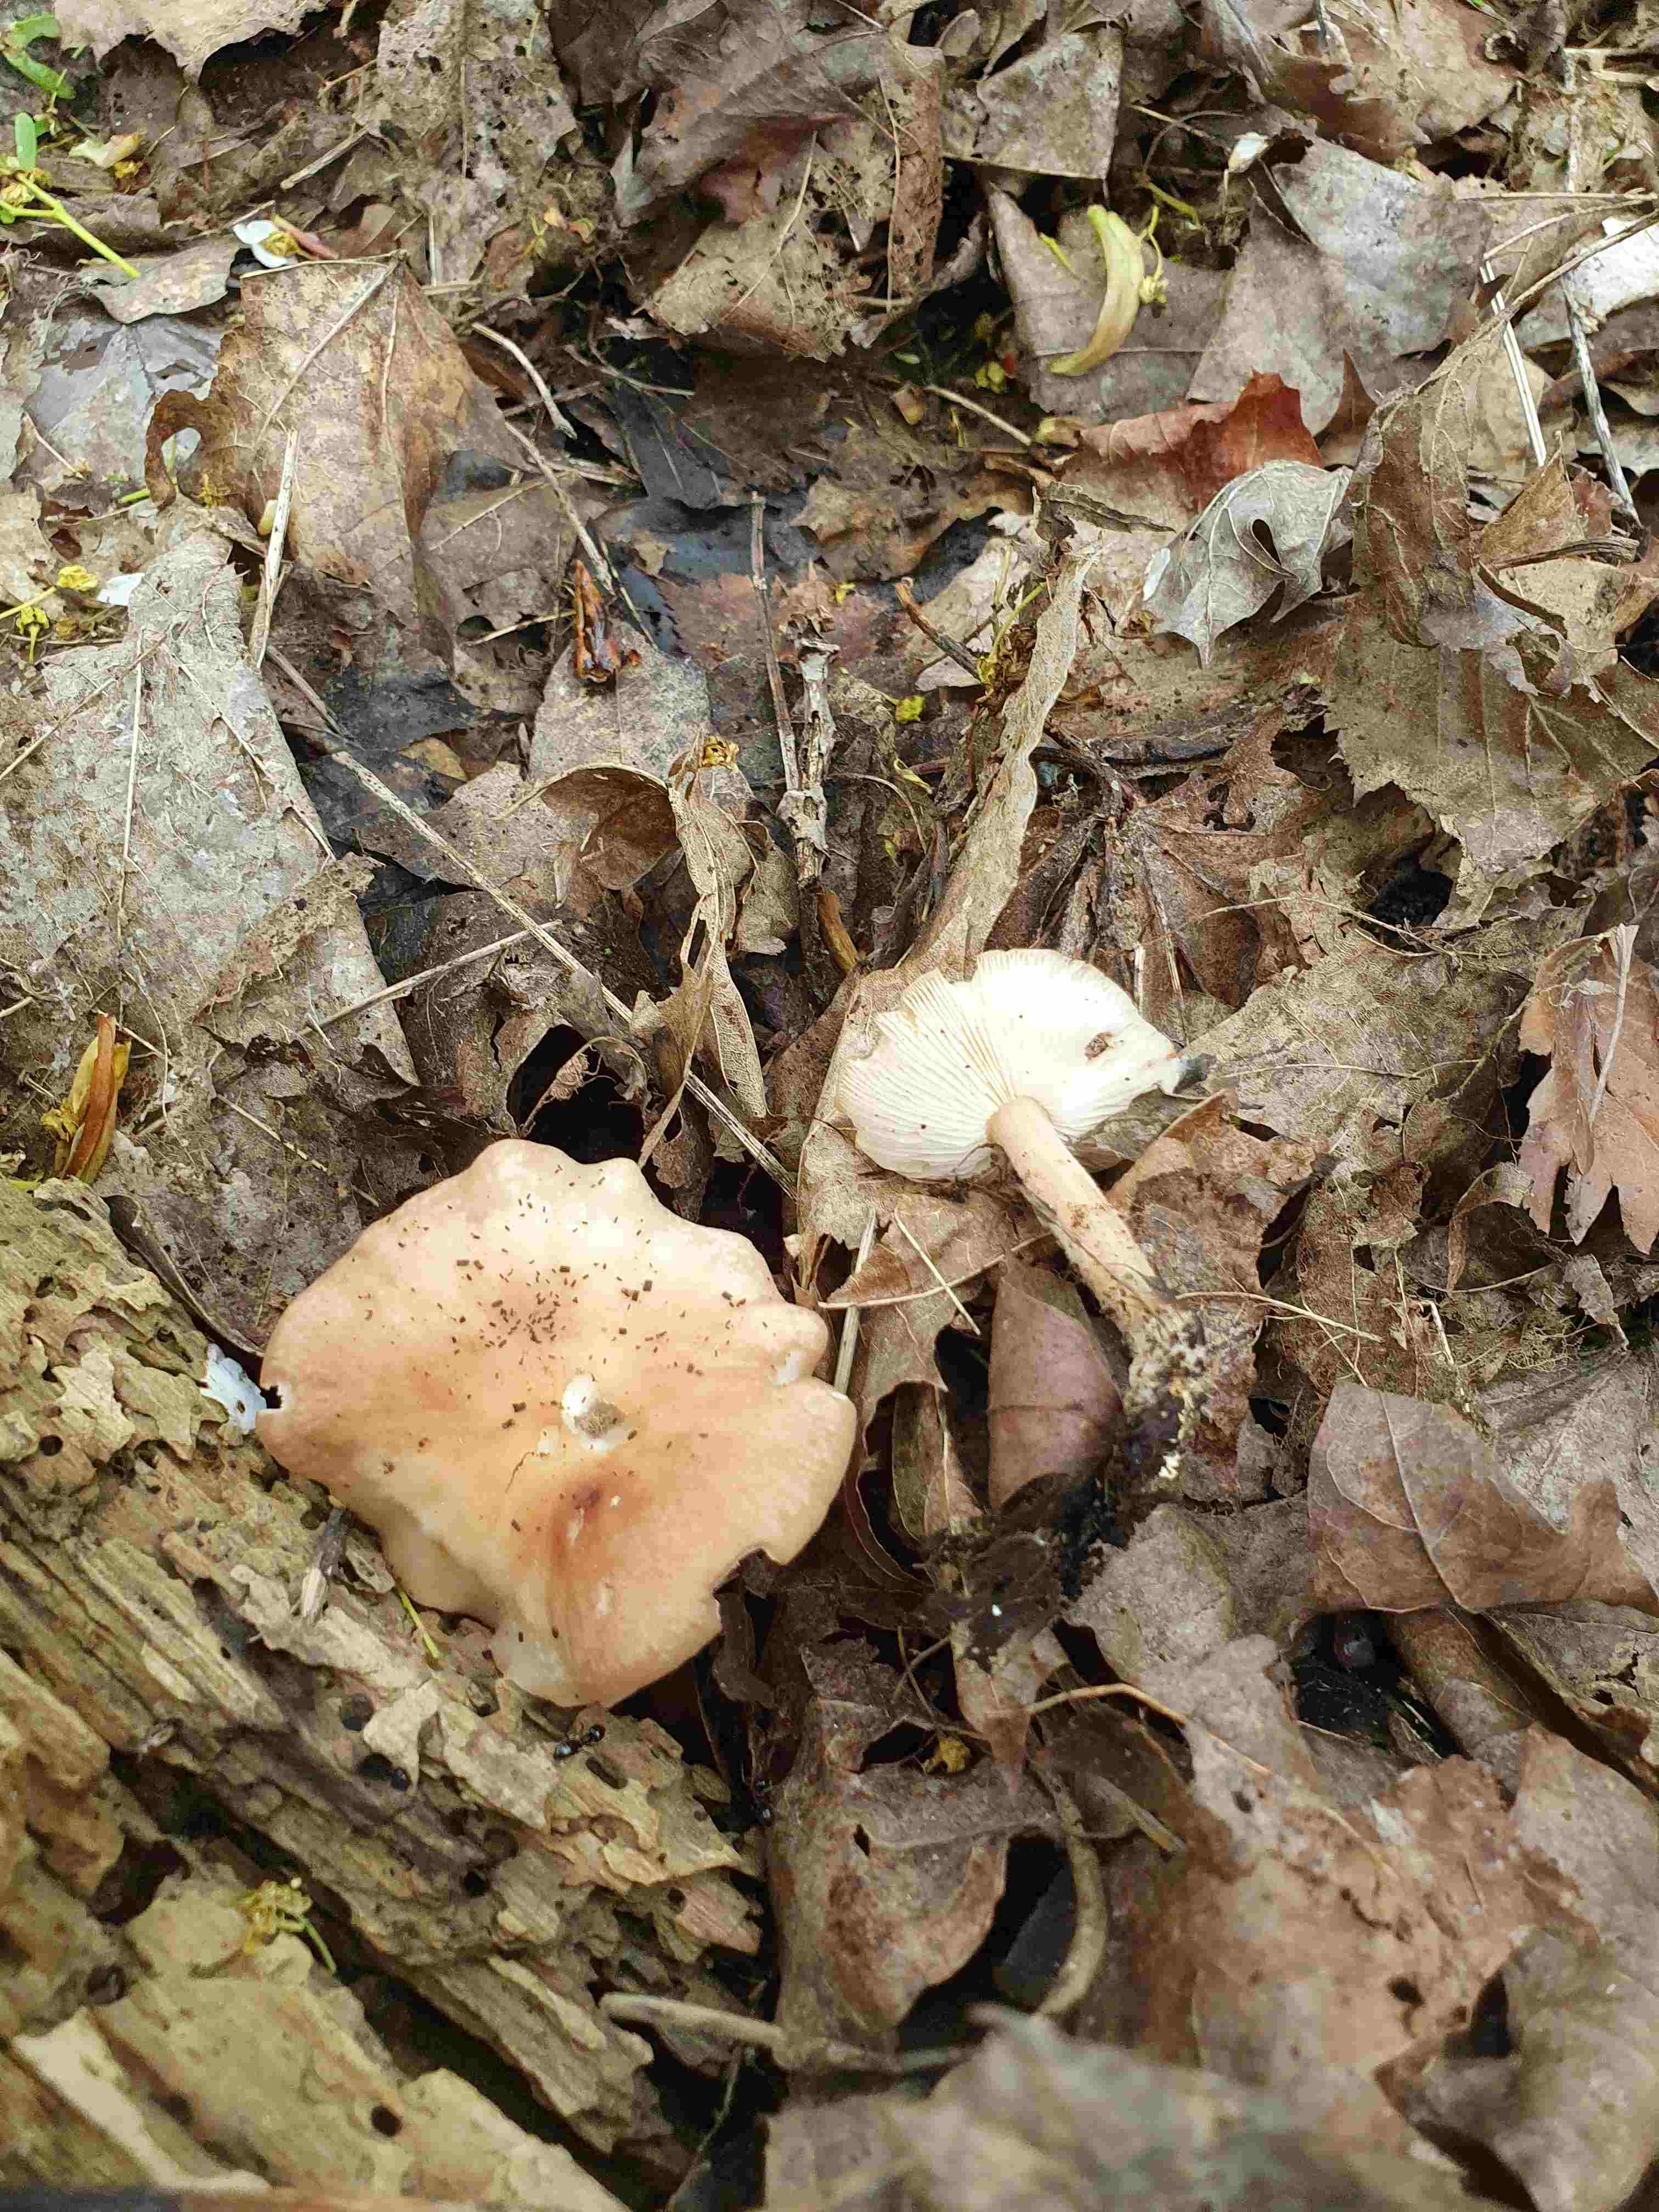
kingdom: Fungi
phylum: Basidiomycota
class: Agaricomycetes
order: Agaricales
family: Omphalotaceae
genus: Gymnopus
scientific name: Gymnopus hariolorum
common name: hvidkåls-fladhat
